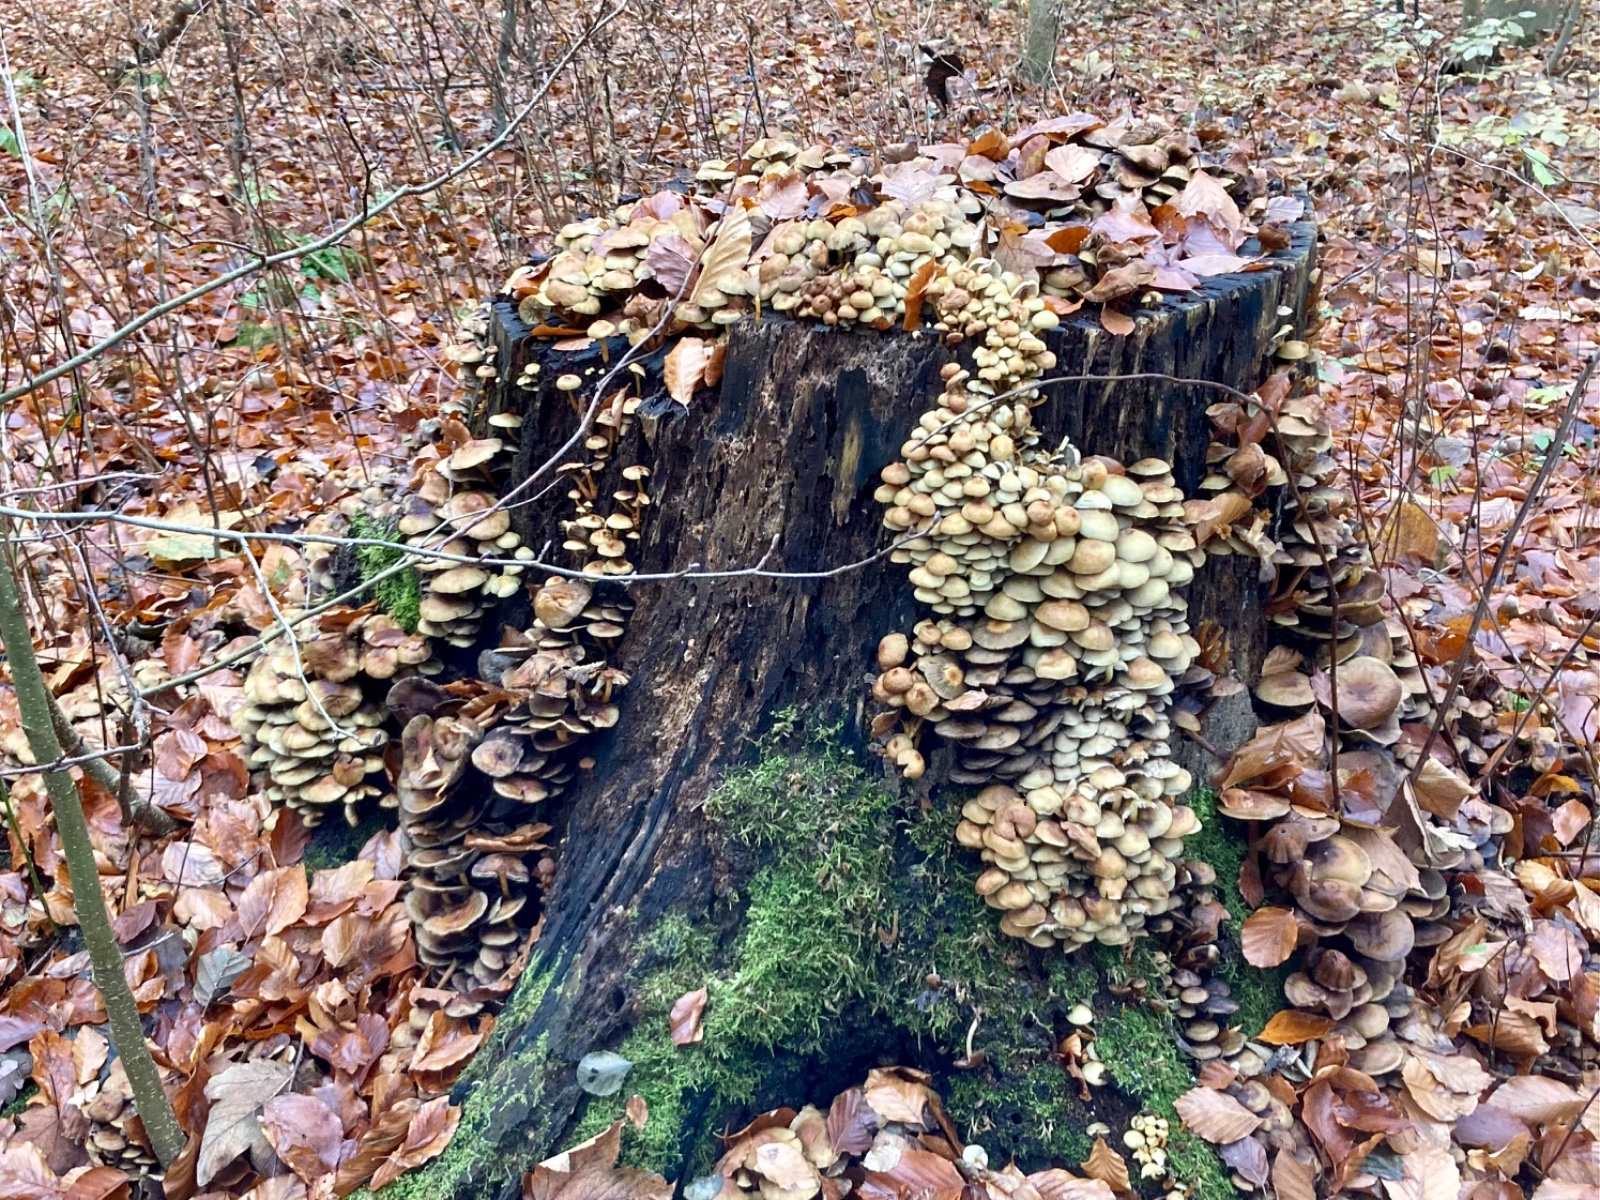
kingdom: Fungi
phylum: Basidiomycota
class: Agaricomycetes
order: Agaricales
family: Strophariaceae
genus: Hypholoma
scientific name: Hypholoma fasciculare
